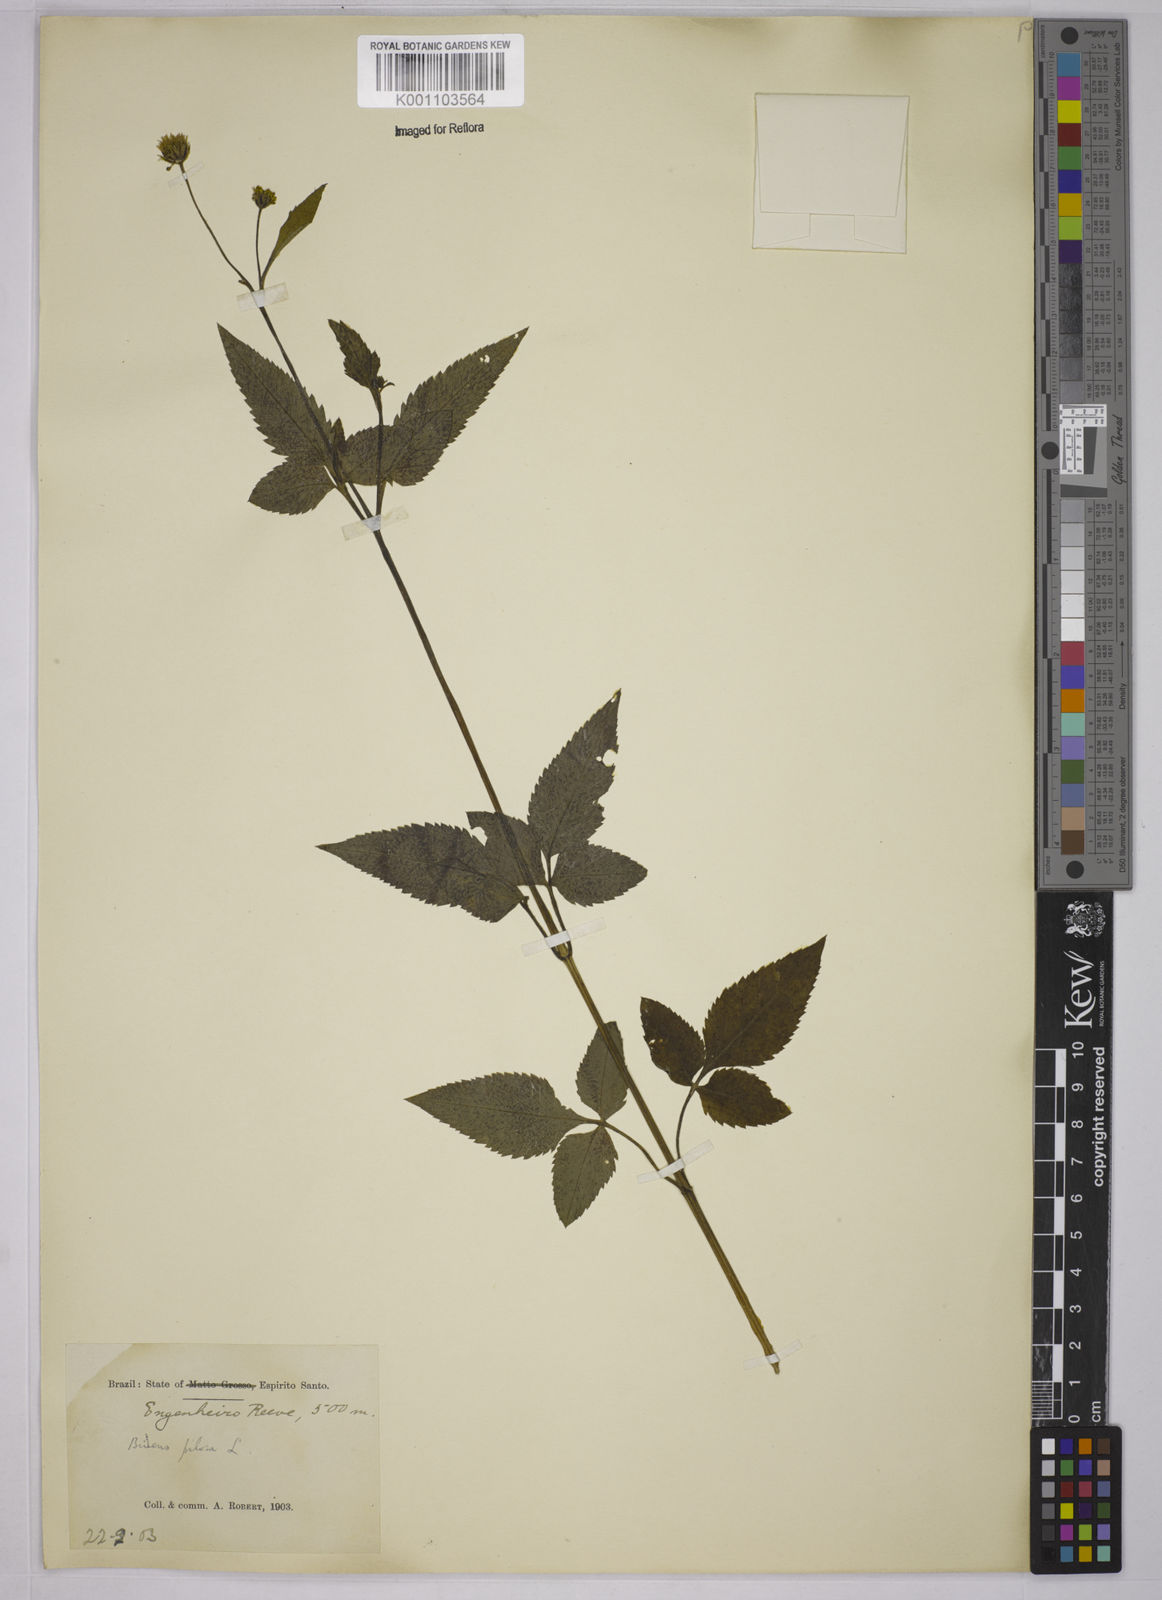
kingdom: Plantae
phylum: Tracheophyta
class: Magnoliopsida
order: Asterales
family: Asteraceae
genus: Bidens
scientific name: Bidens pilosa
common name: Black-jack
